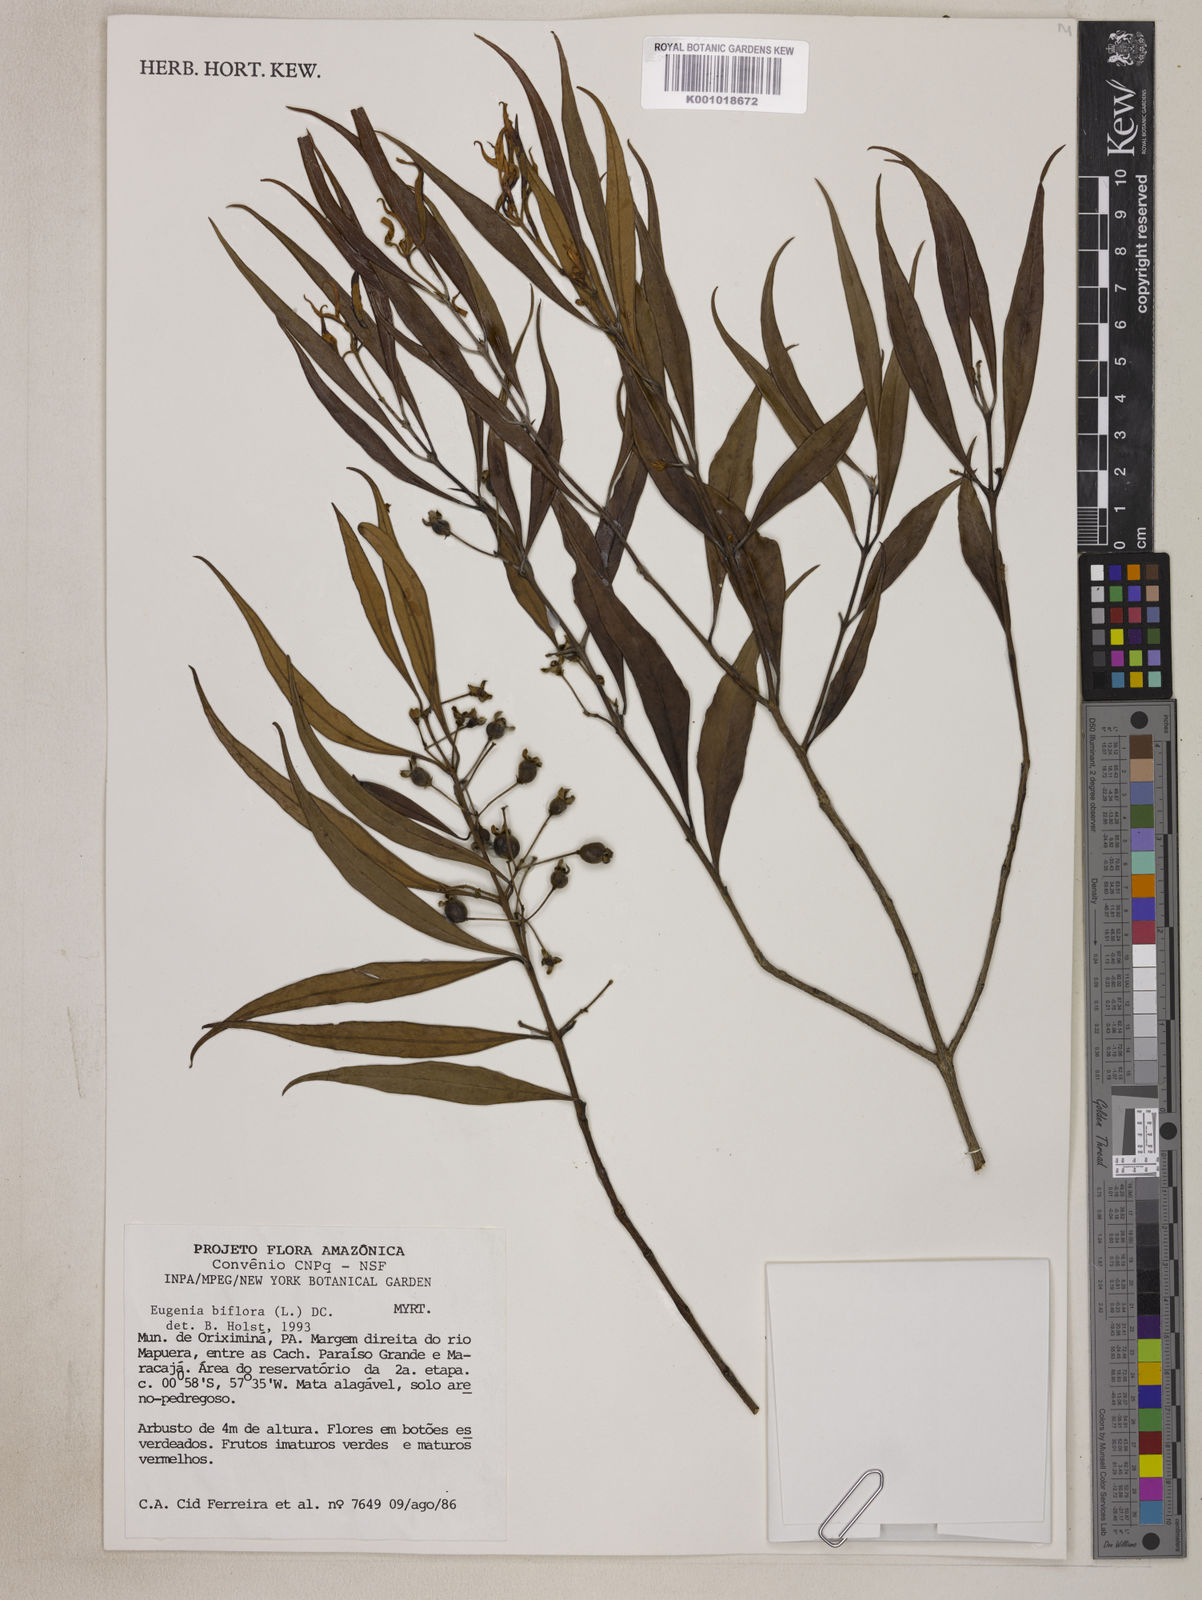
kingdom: Plantae
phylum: Tracheophyta
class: Magnoliopsida
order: Myrtales
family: Myrtaceae
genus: Eugenia
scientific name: Eugenia biflora
